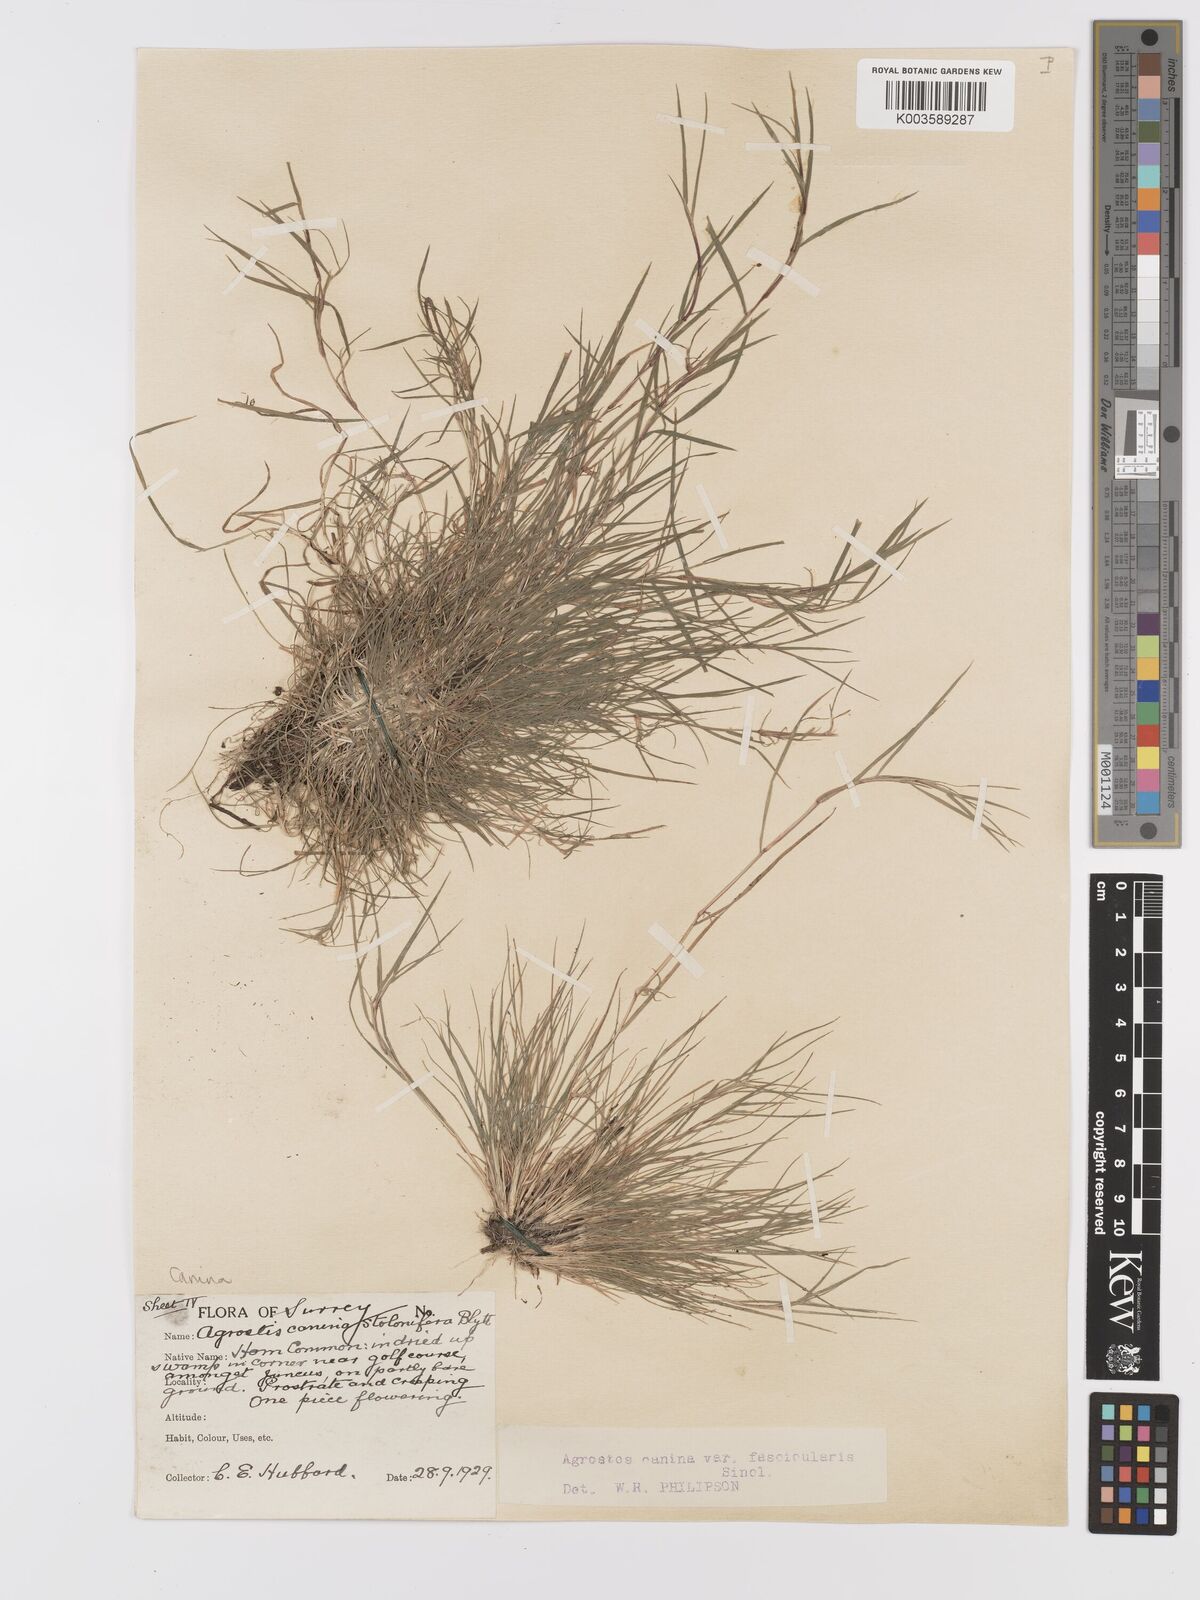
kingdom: Plantae
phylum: Tracheophyta
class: Liliopsida
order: Poales
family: Poaceae
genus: Agrostis
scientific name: Agrostis canina
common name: Velvet bent
